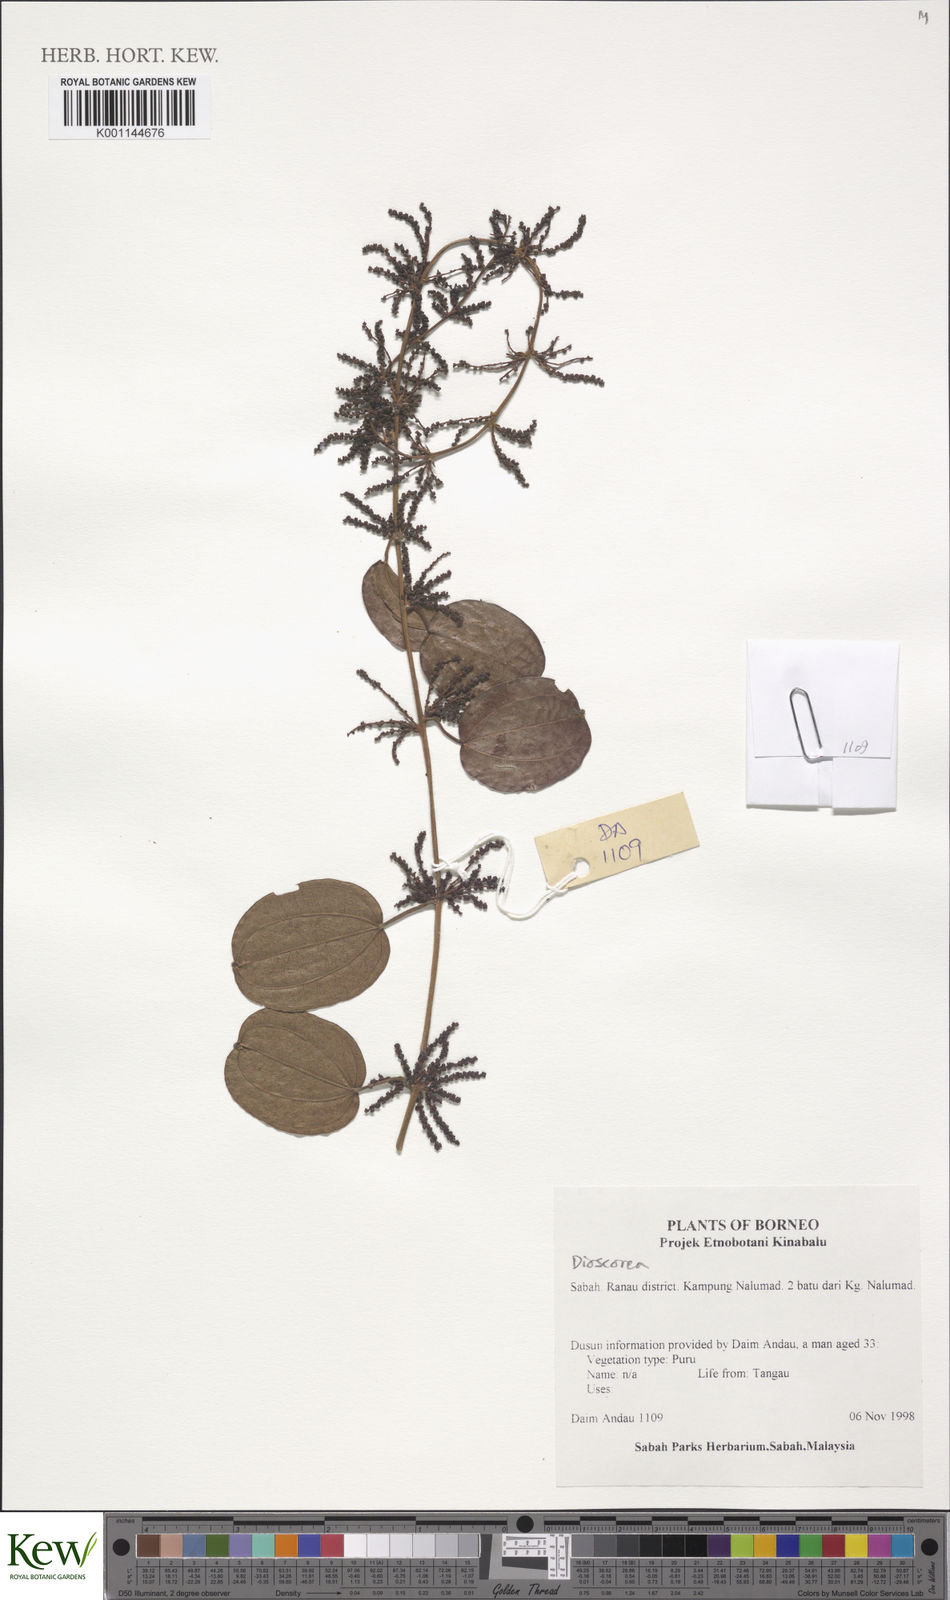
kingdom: Plantae
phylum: Tracheophyta
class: Liliopsida
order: Dioscoreales
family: Dioscoreaceae
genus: Dioscorea
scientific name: Dioscorea
